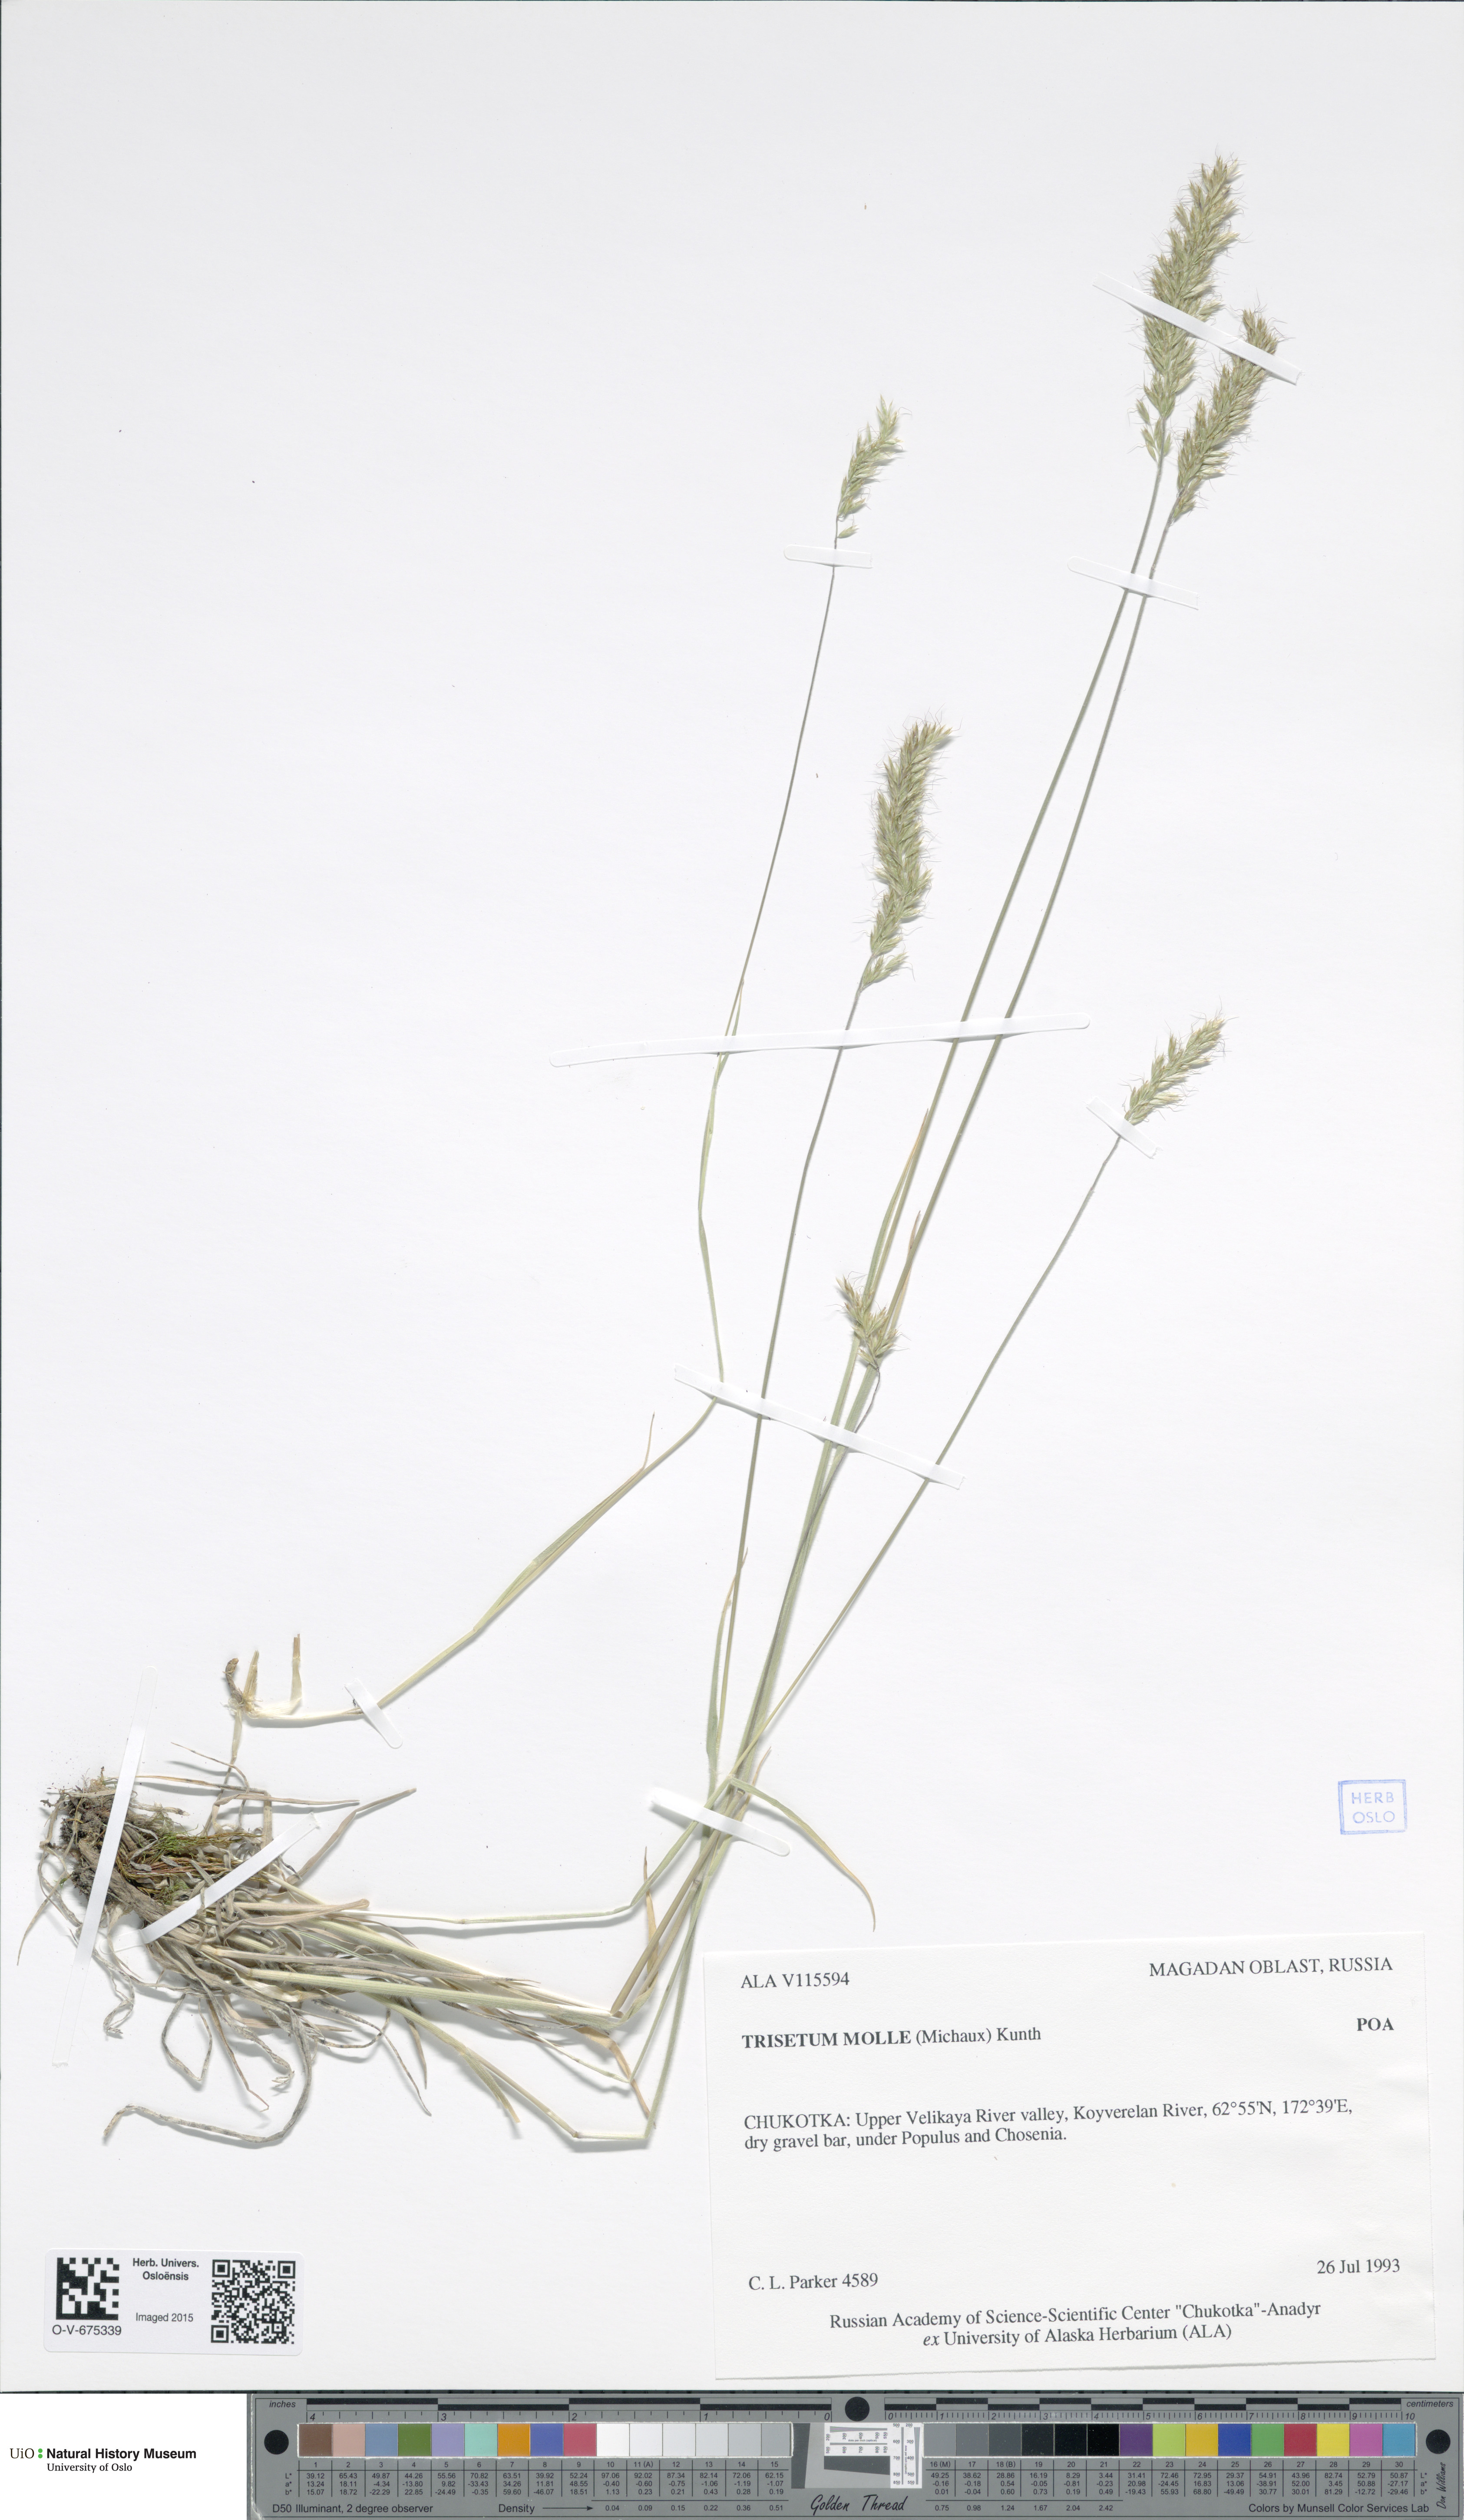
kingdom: Plantae
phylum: Tracheophyta
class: Liliopsida
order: Poales
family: Poaceae
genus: Koeleria
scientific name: Koeleria spicata
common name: Mountain trisetum
